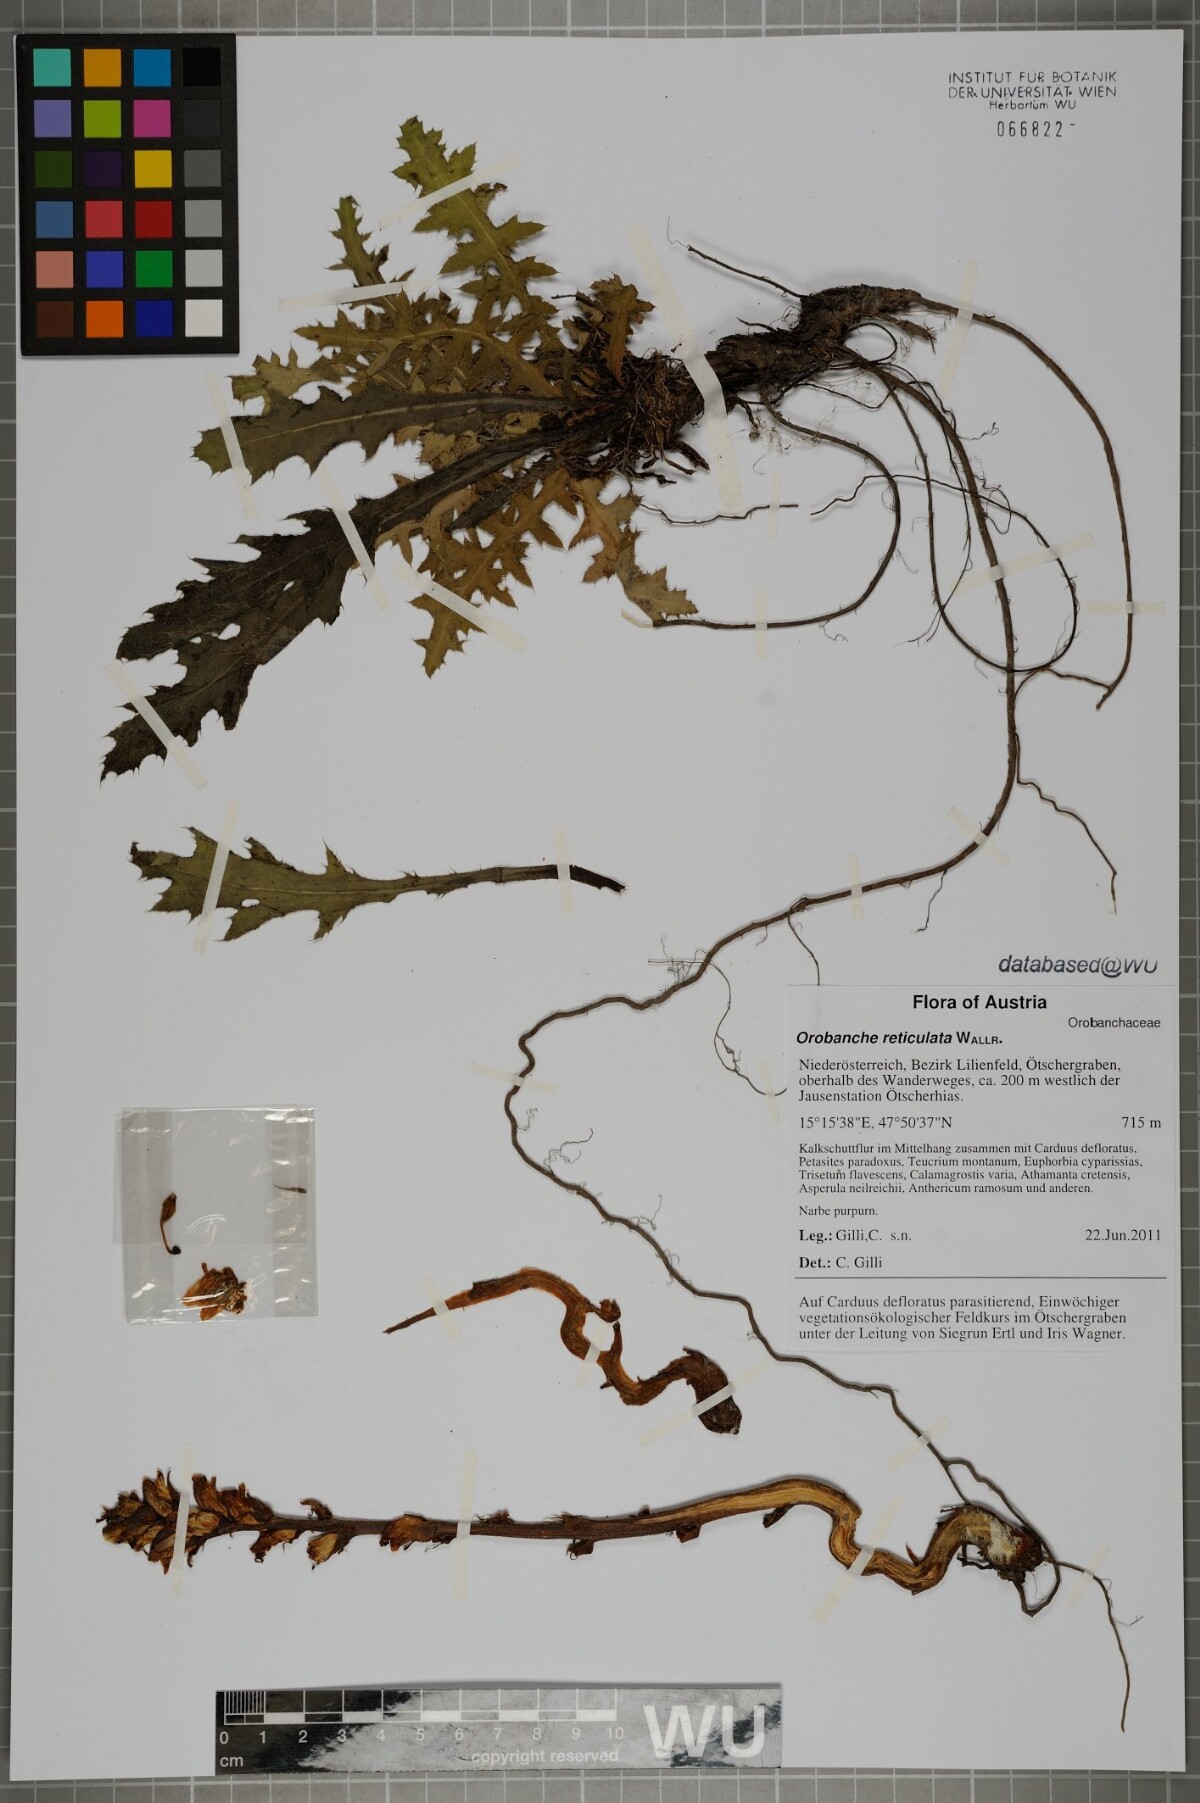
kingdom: Plantae
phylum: Tracheophyta
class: Magnoliopsida
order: Lamiales
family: Orobanchaceae
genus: Orobanche
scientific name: Orobanche reticulata
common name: Thistle broomrape
